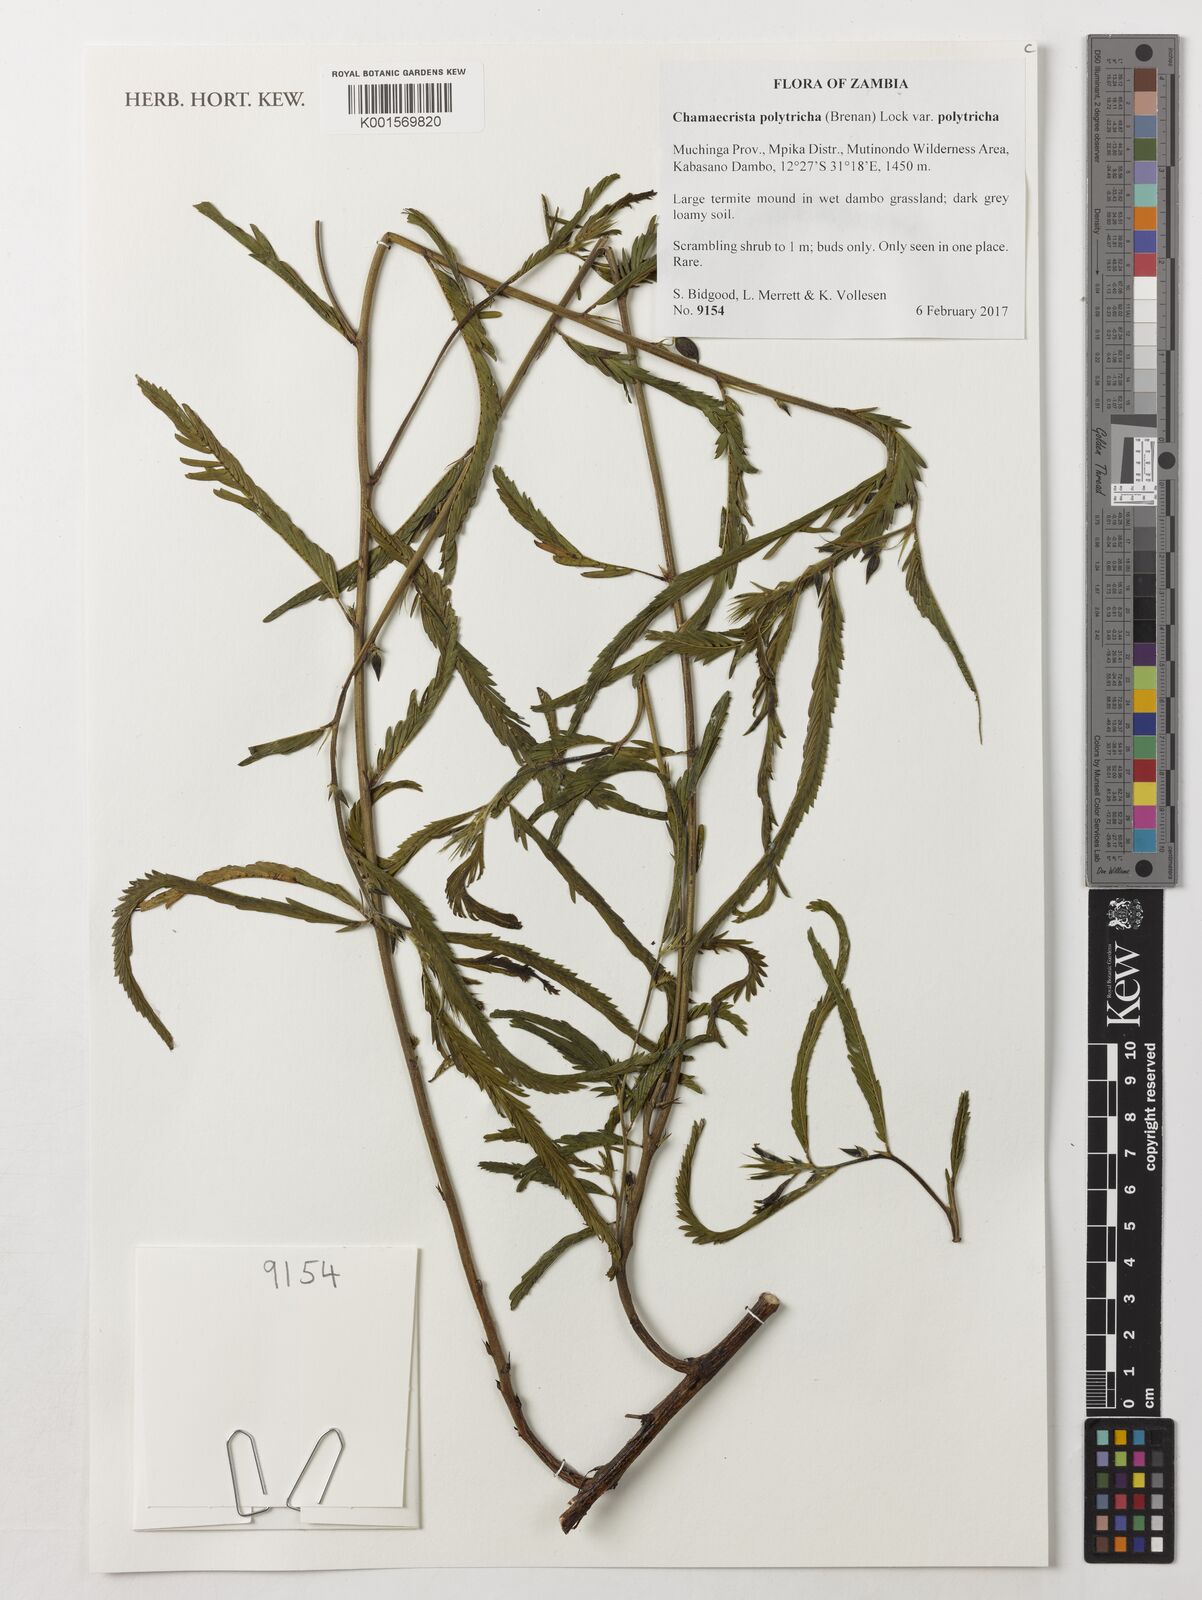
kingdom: Plantae
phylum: Tracheophyta
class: Magnoliopsida
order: Fabales
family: Fabaceae
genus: Chamaecrista
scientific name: Chamaecrista polytricha
